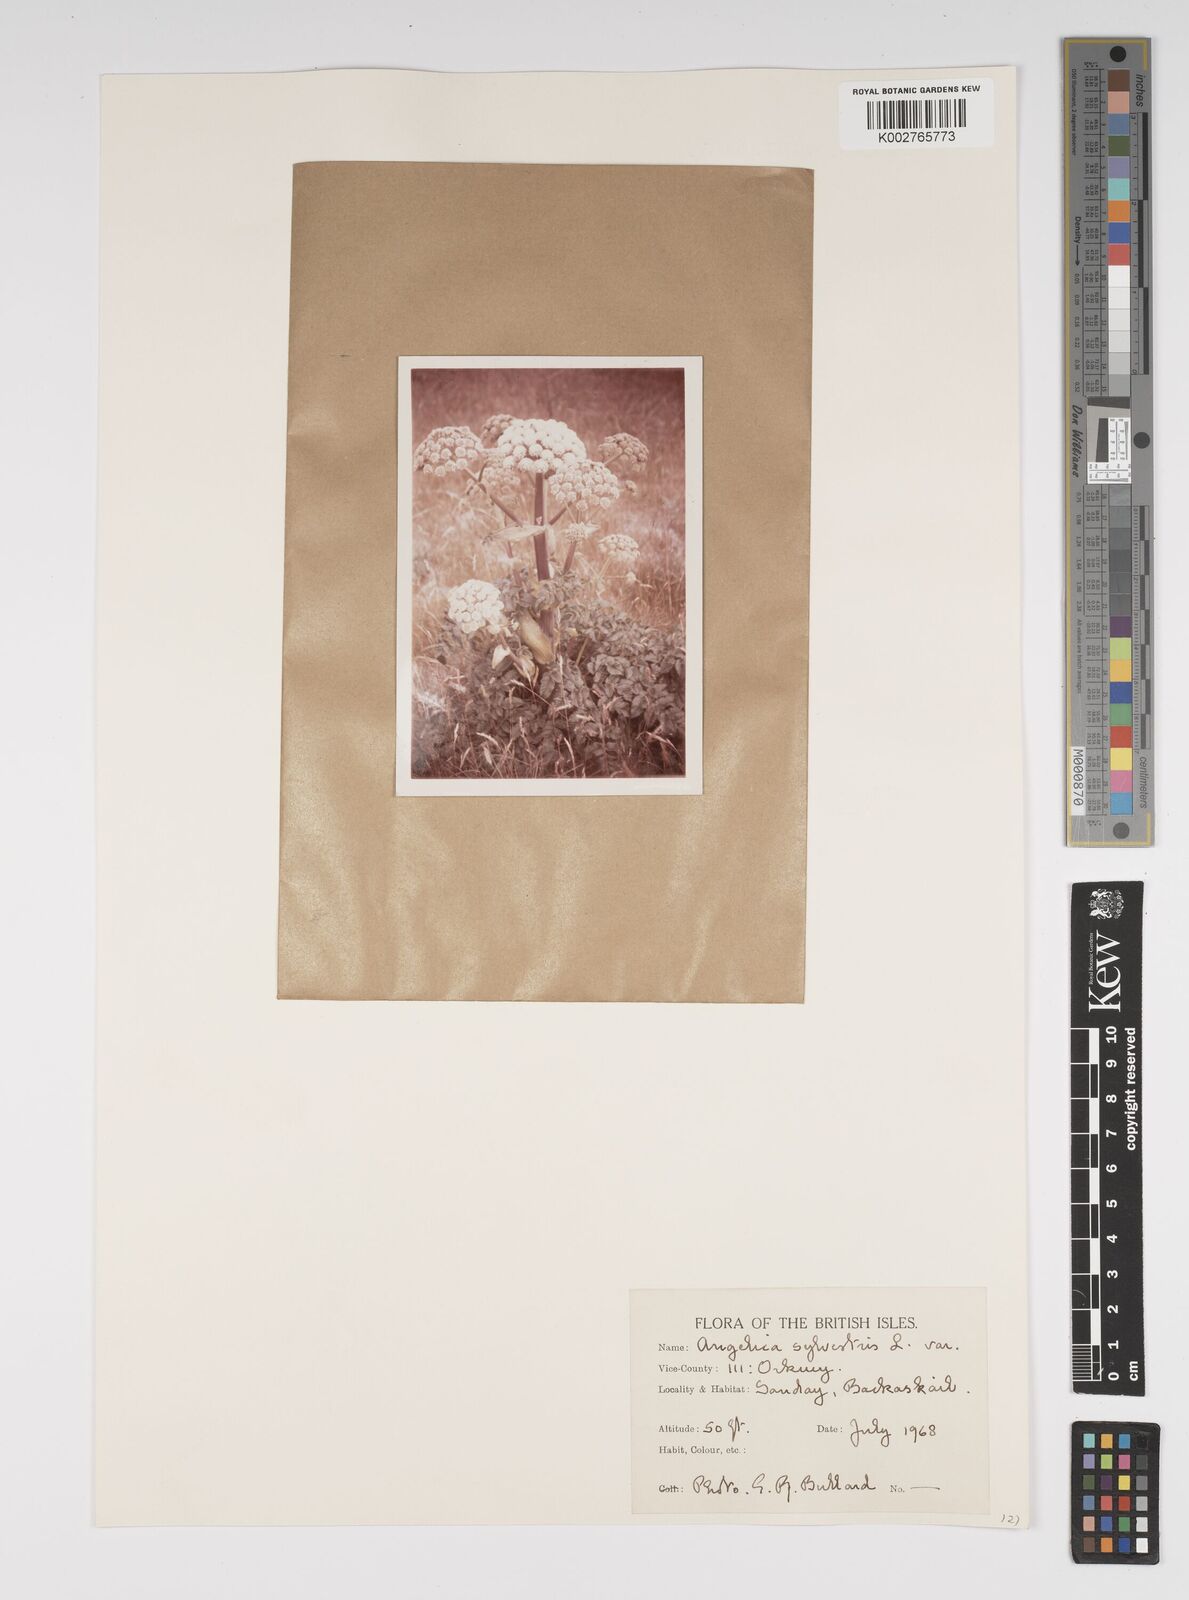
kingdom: Plantae
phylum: Tracheophyta
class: Magnoliopsida
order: Apiales
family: Apiaceae
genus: Angelica
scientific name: Angelica sylvestris
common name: Wild angelica
